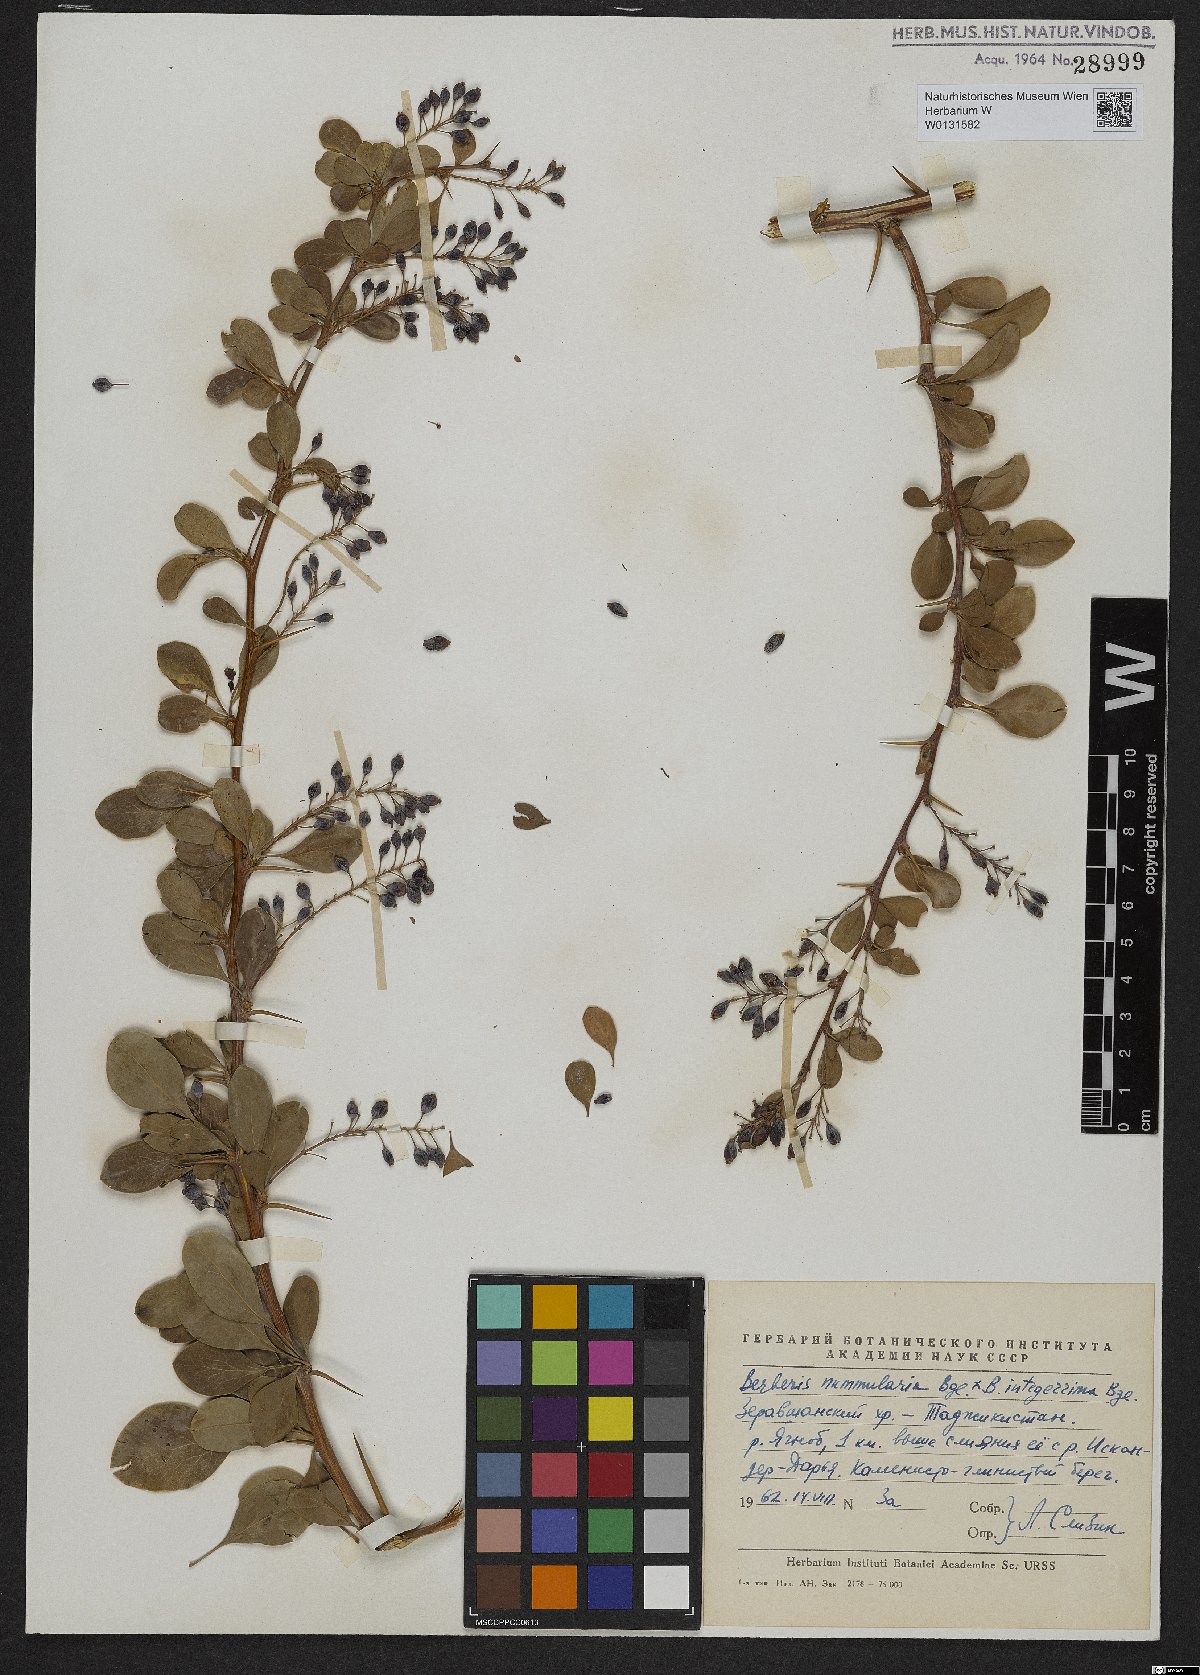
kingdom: Plantae
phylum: Tracheophyta
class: Magnoliopsida
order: Ranunculales
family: Berberidaceae
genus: Berberis
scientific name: Berberis integerrima
